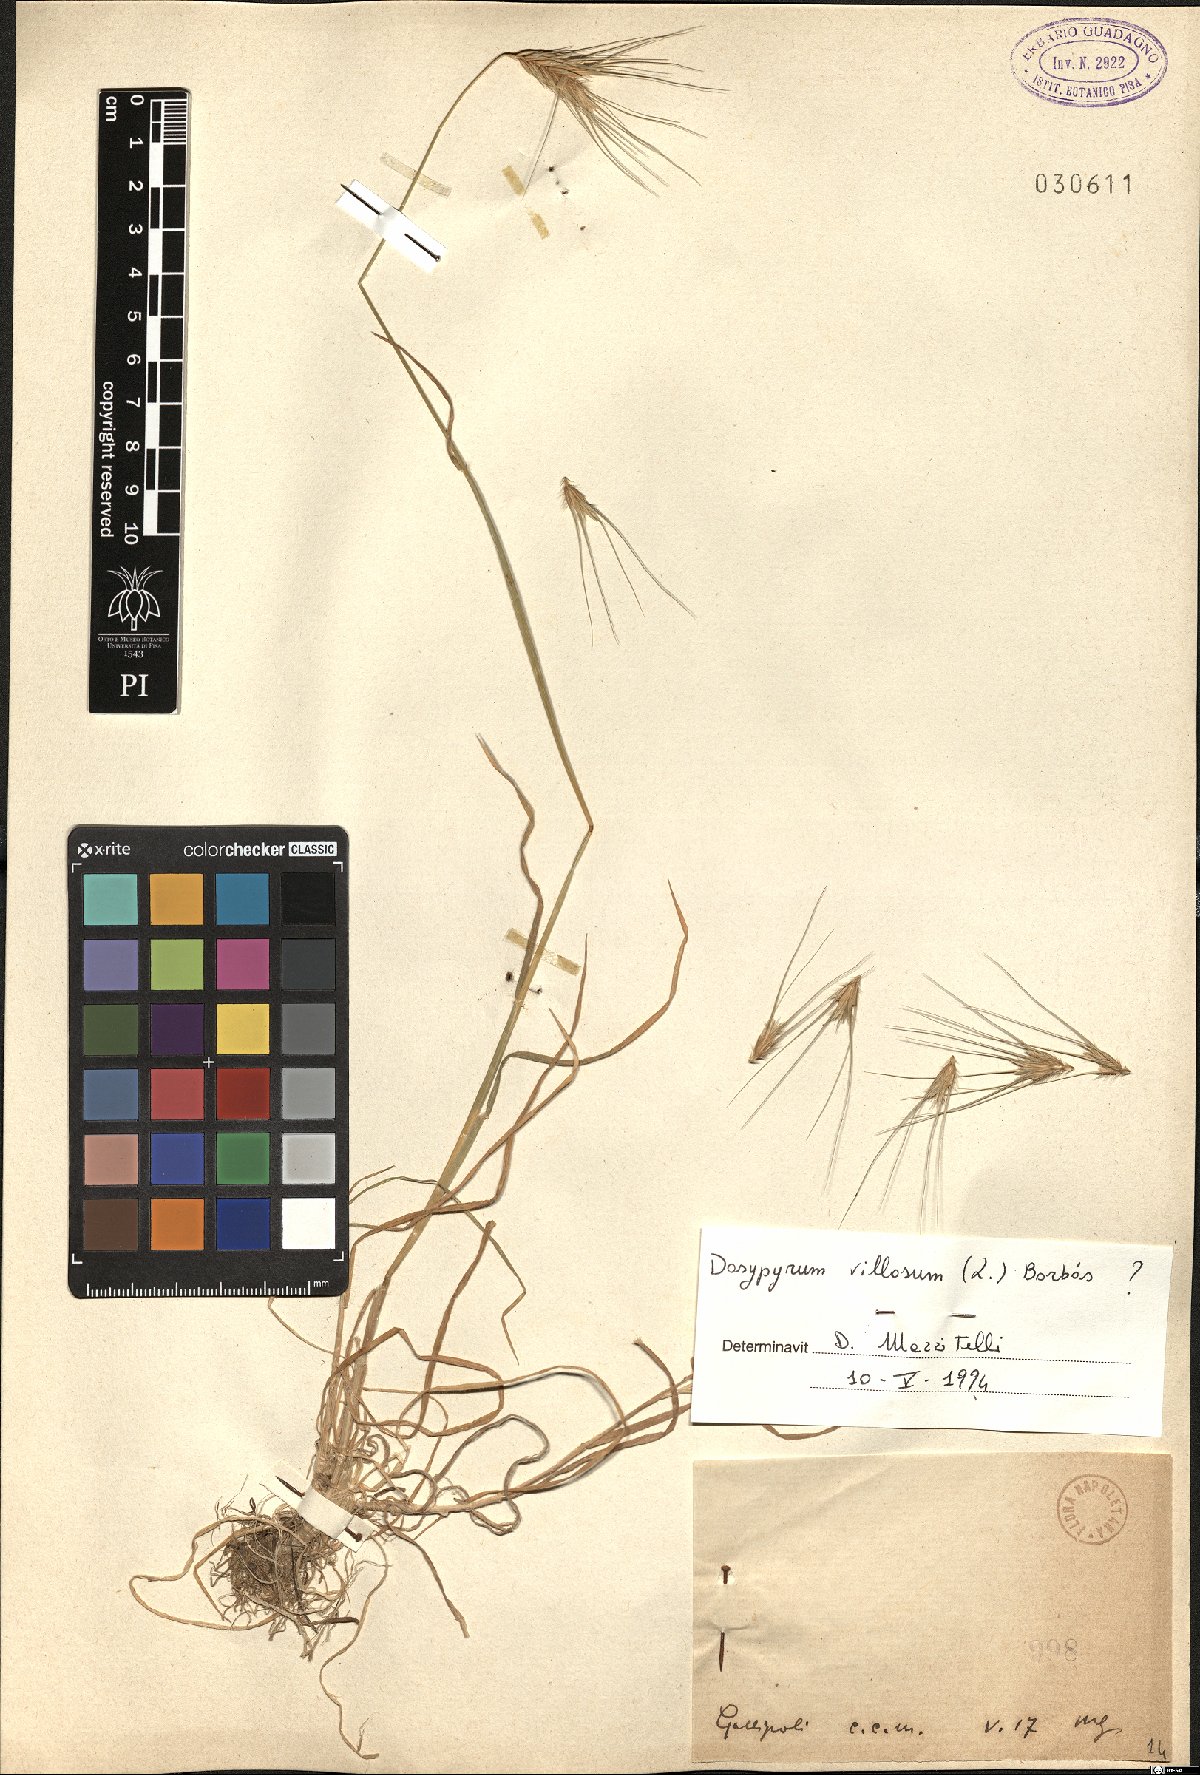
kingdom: Plantae
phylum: Tracheophyta
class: Liliopsida
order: Poales
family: Poaceae
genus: Dasypyrum
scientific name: Dasypyrum villosum
